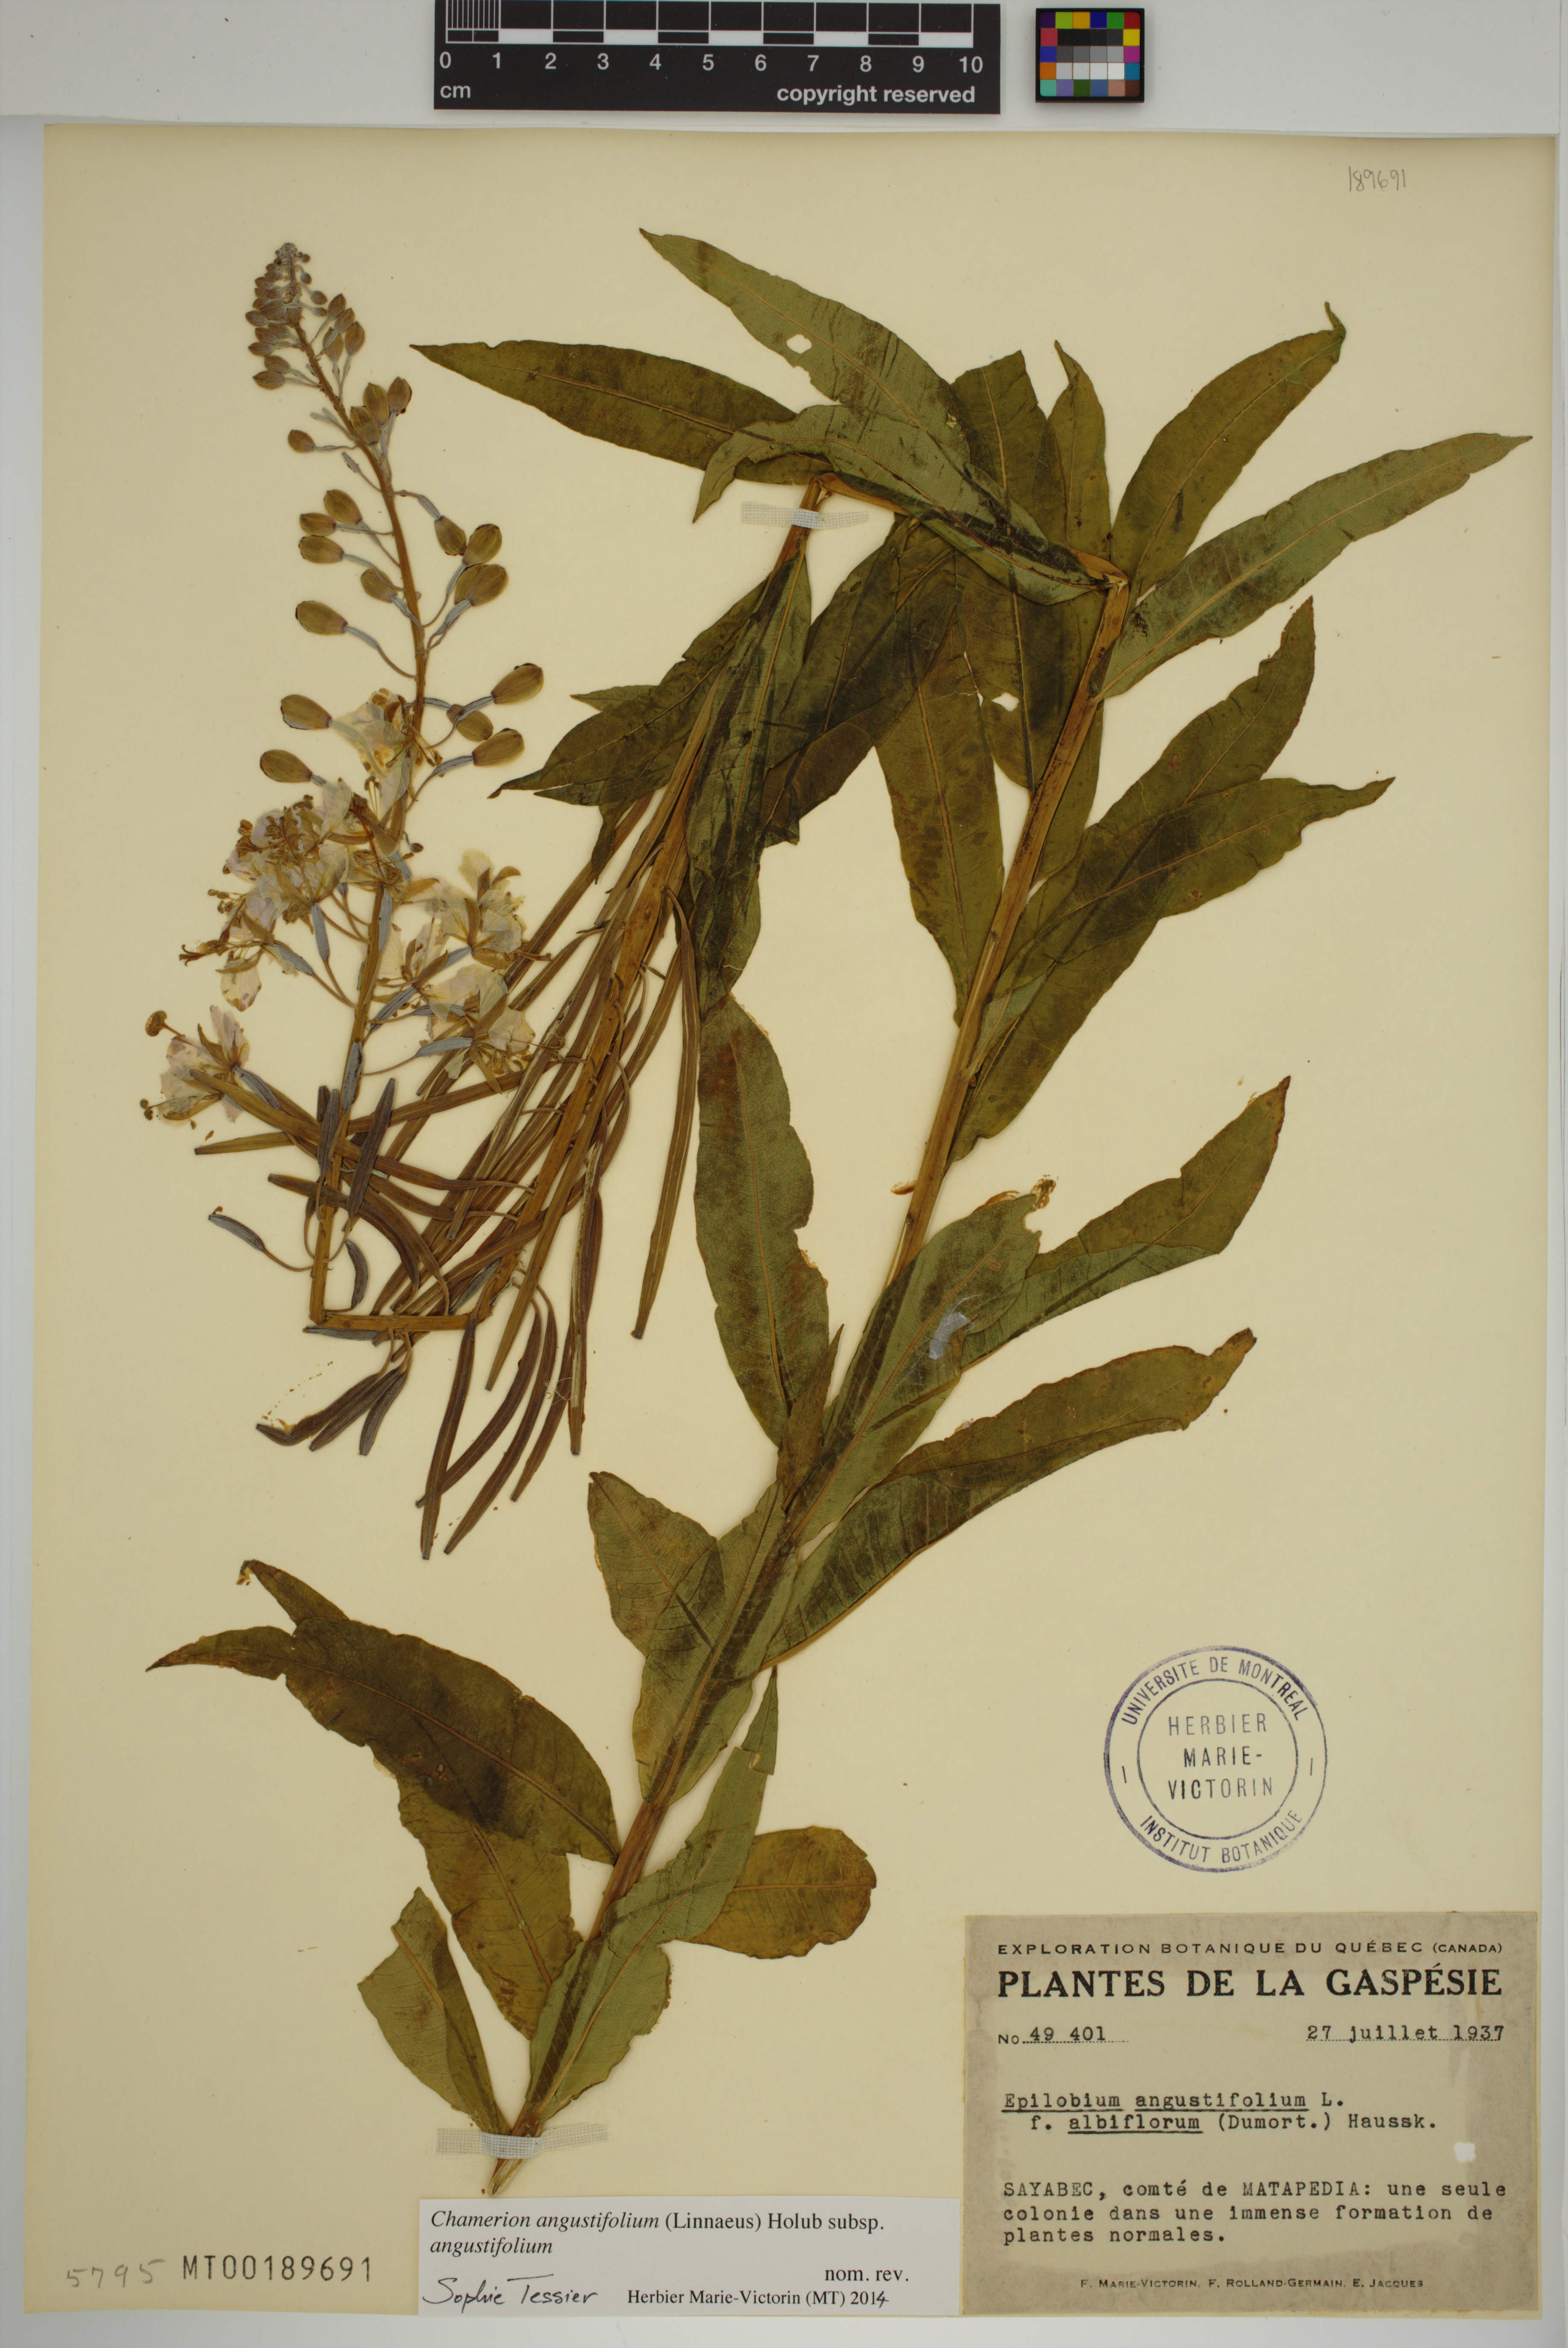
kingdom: Plantae
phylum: Tracheophyta
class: Magnoliopsida
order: Myrtales
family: Onagraceae
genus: Chamaenerion
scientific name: Chamaenerion angustifolium
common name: Fireweed
